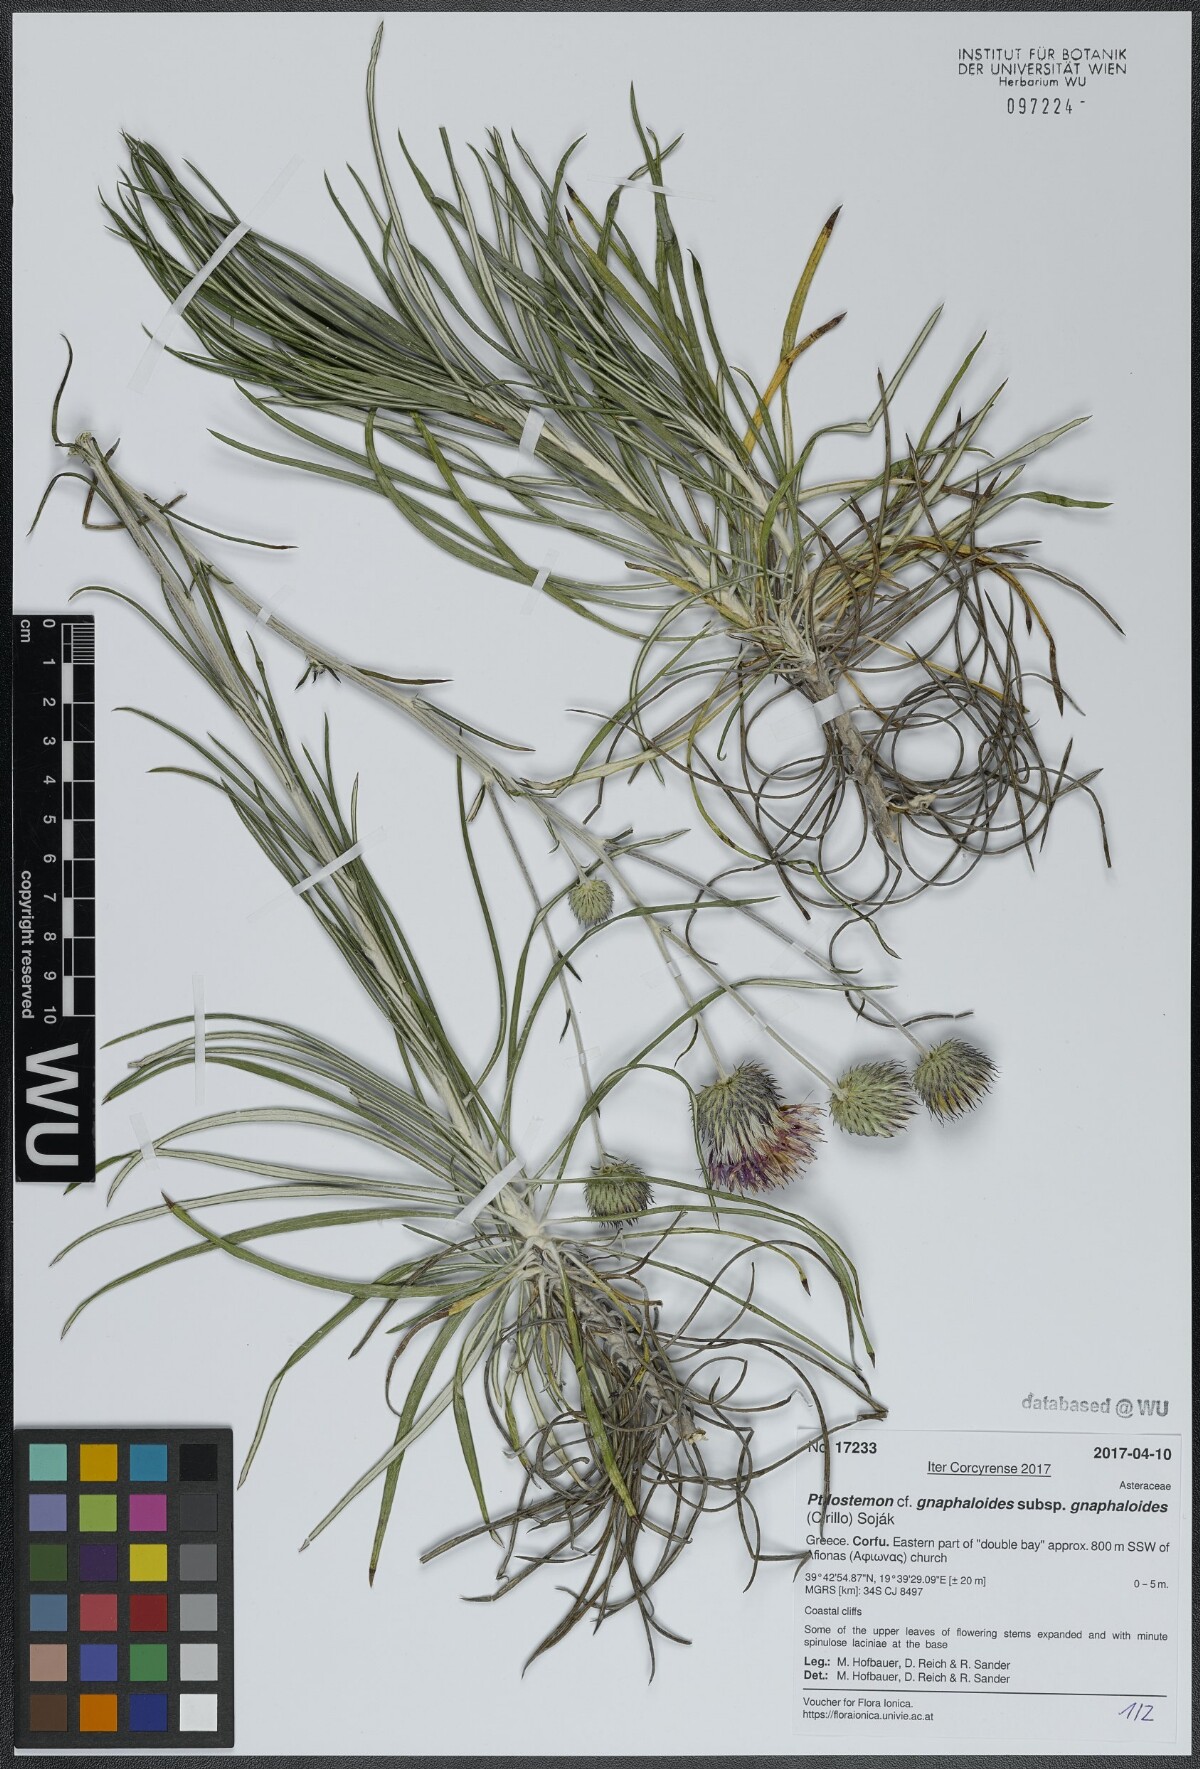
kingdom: Plantae
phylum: Tracheophyta
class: Magnoliopsida
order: Asterales
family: Asteraceae
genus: Ptilostemon
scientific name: Ptilostemon gnaphaloides
